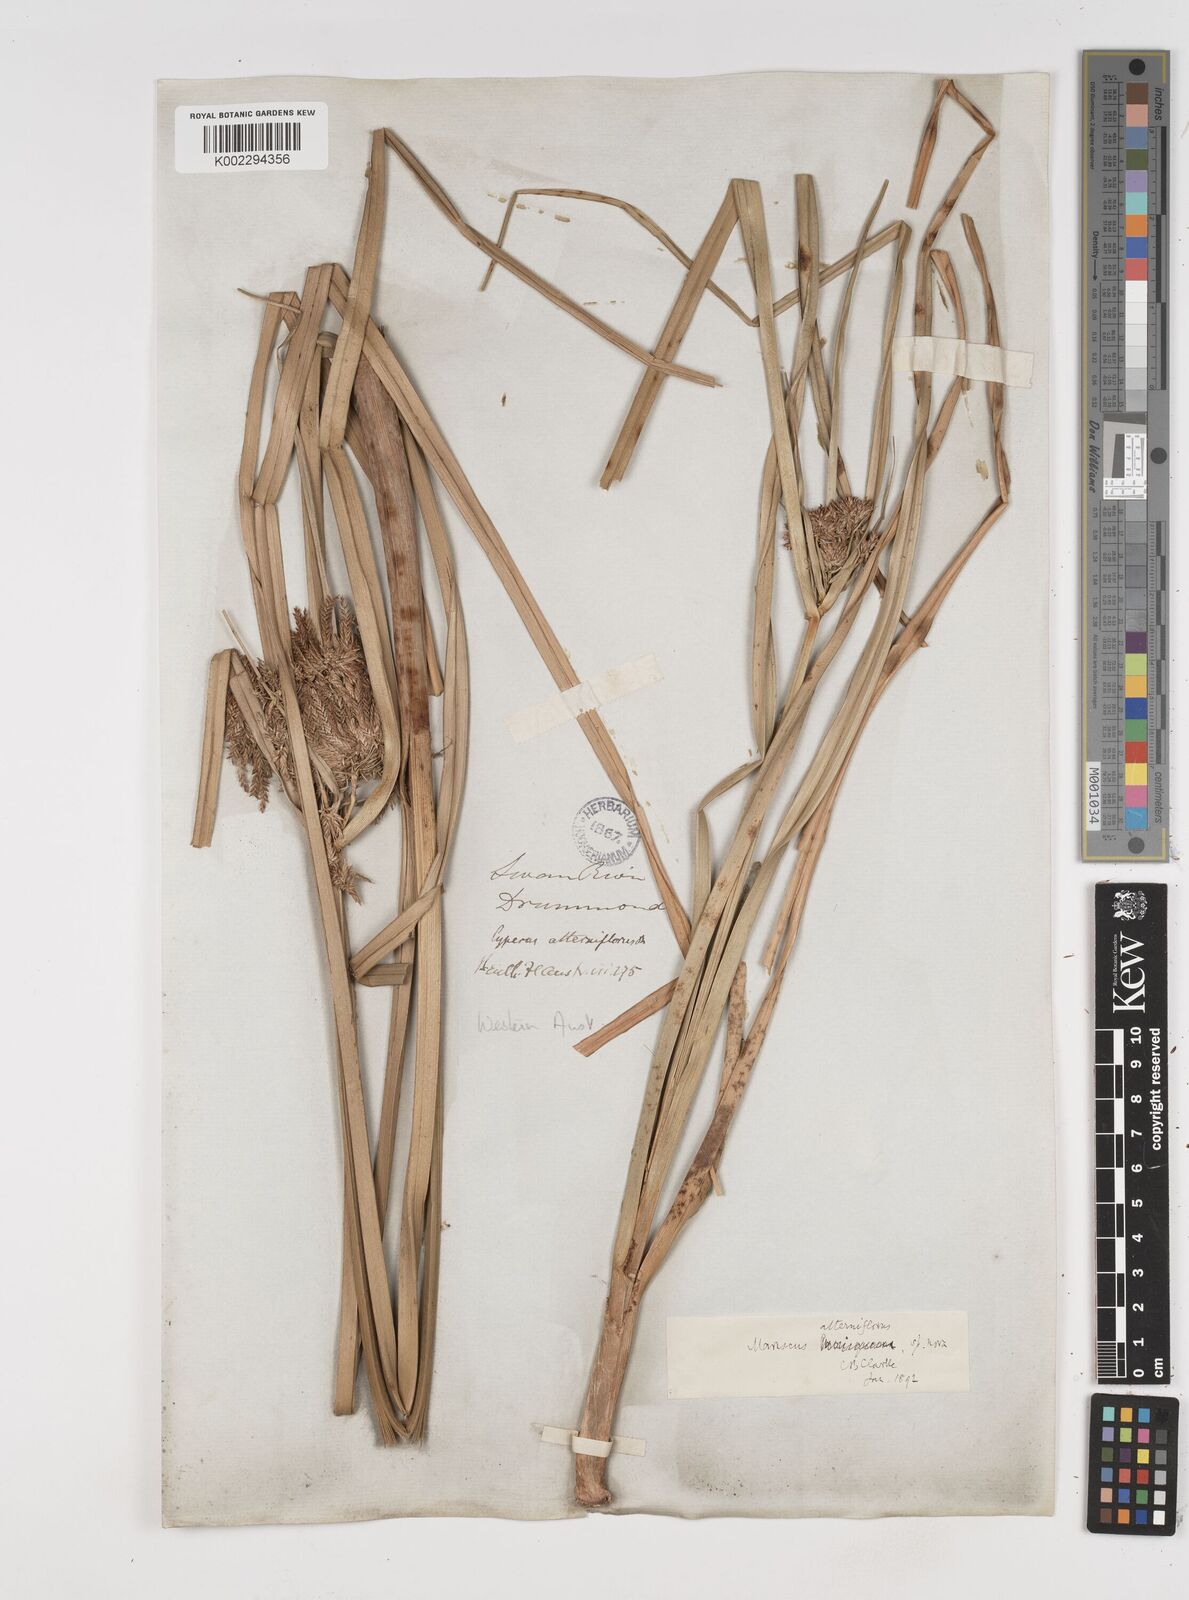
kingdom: Plantae
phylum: Tracheophyta
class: Liliopsida
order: Poales
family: Cyperaceae
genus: Cyperus
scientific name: Cyperus alterniflorus
